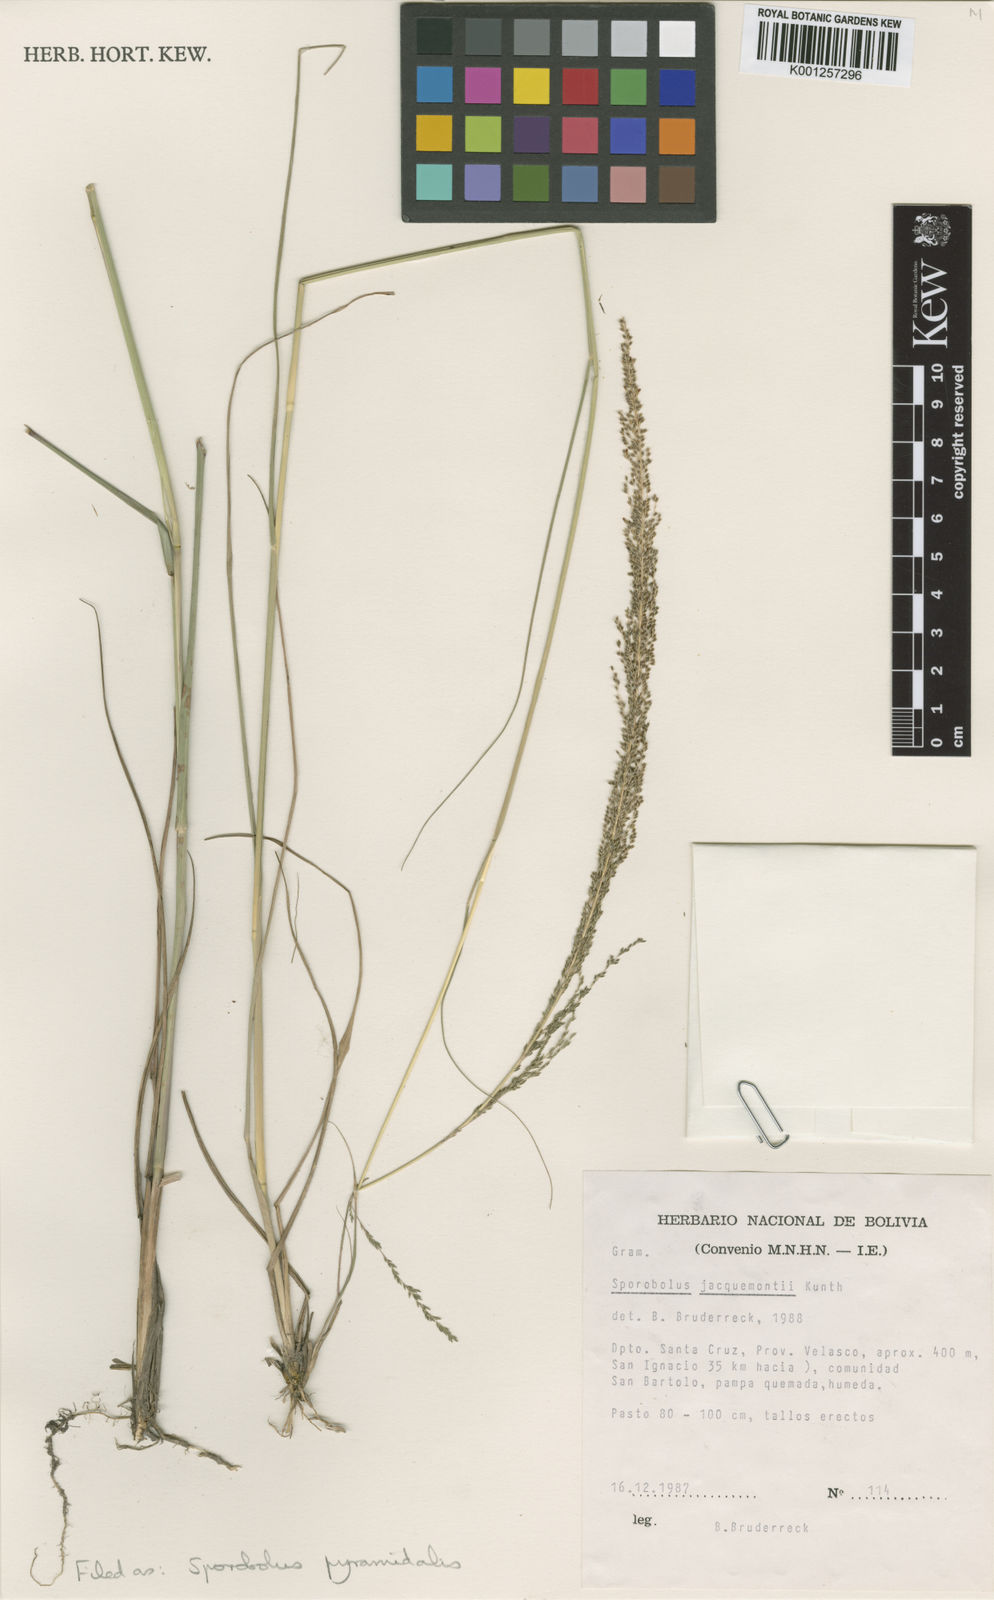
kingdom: Plantae
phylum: Tracheophyta
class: Liliopsida
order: Poales
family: Poaceae
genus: Sporobolus
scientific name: Sporobolus pyramidalis
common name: West indian dropseed
